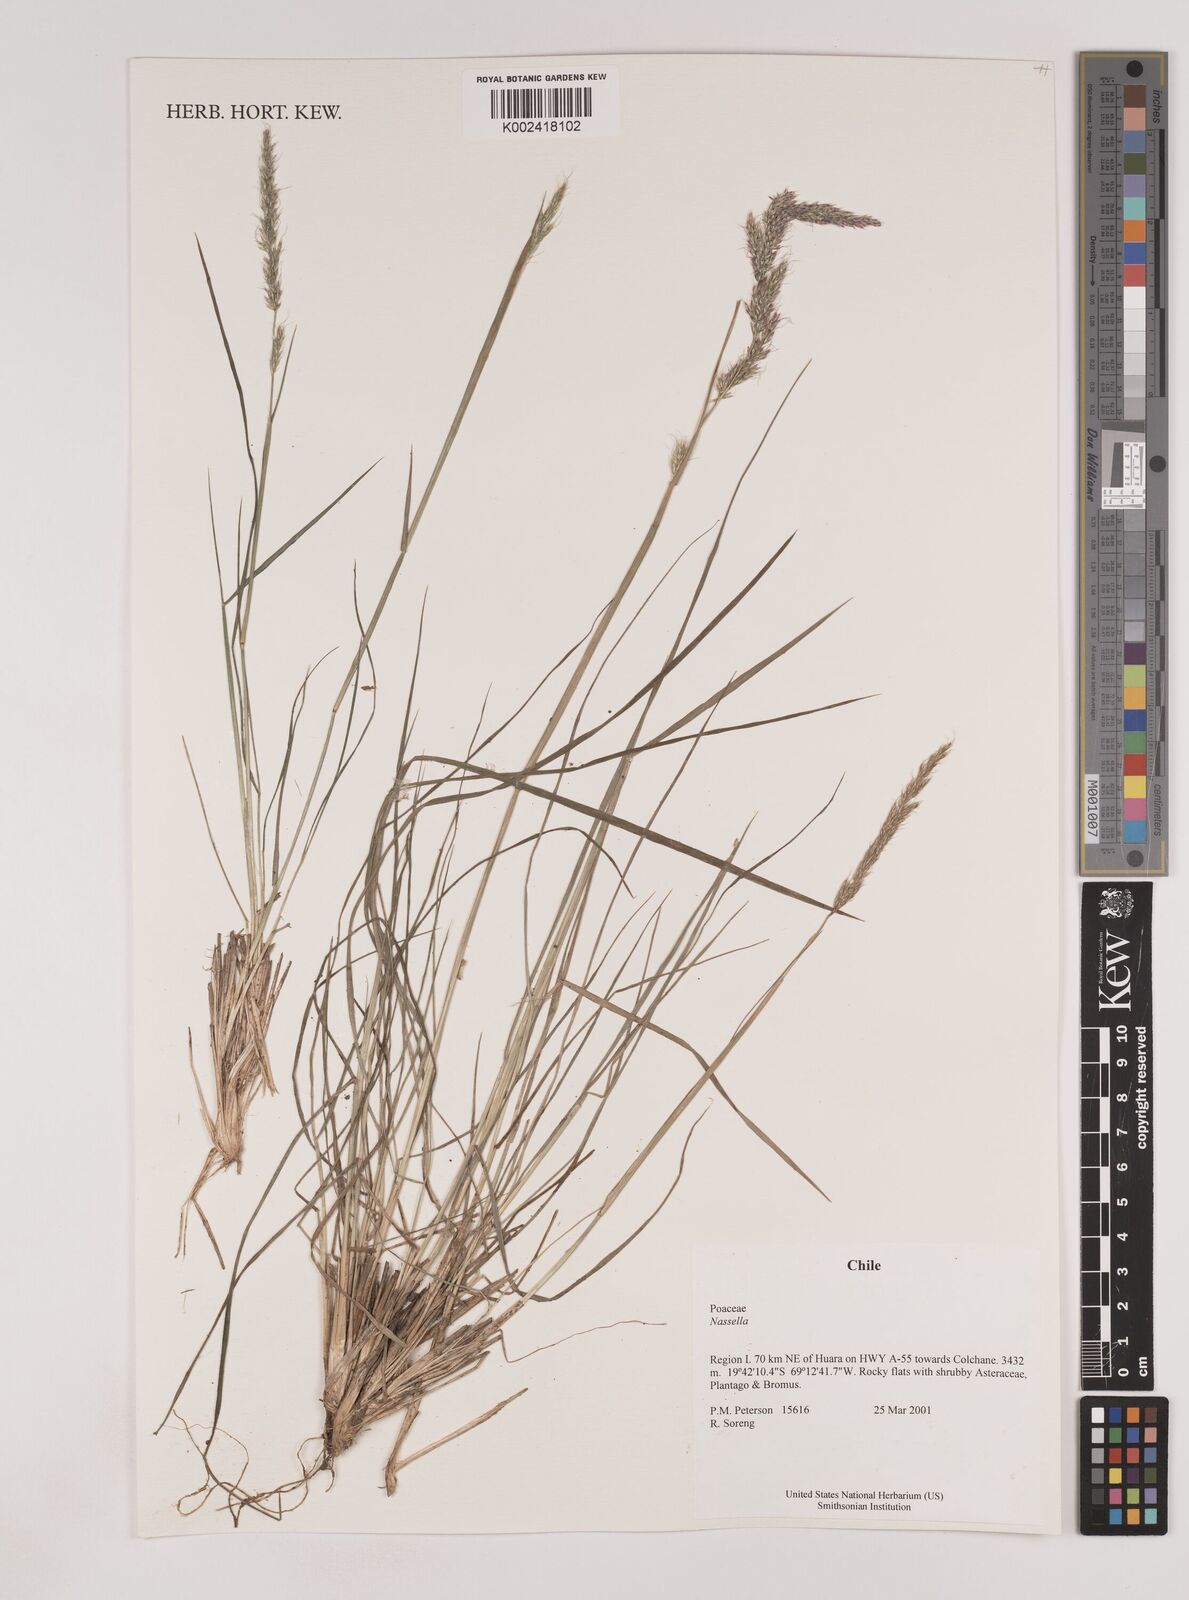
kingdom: Plantae
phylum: Tracheophyta
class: Liliopsida
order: Poales
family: Poaceae
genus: Nassella
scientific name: Nassella
